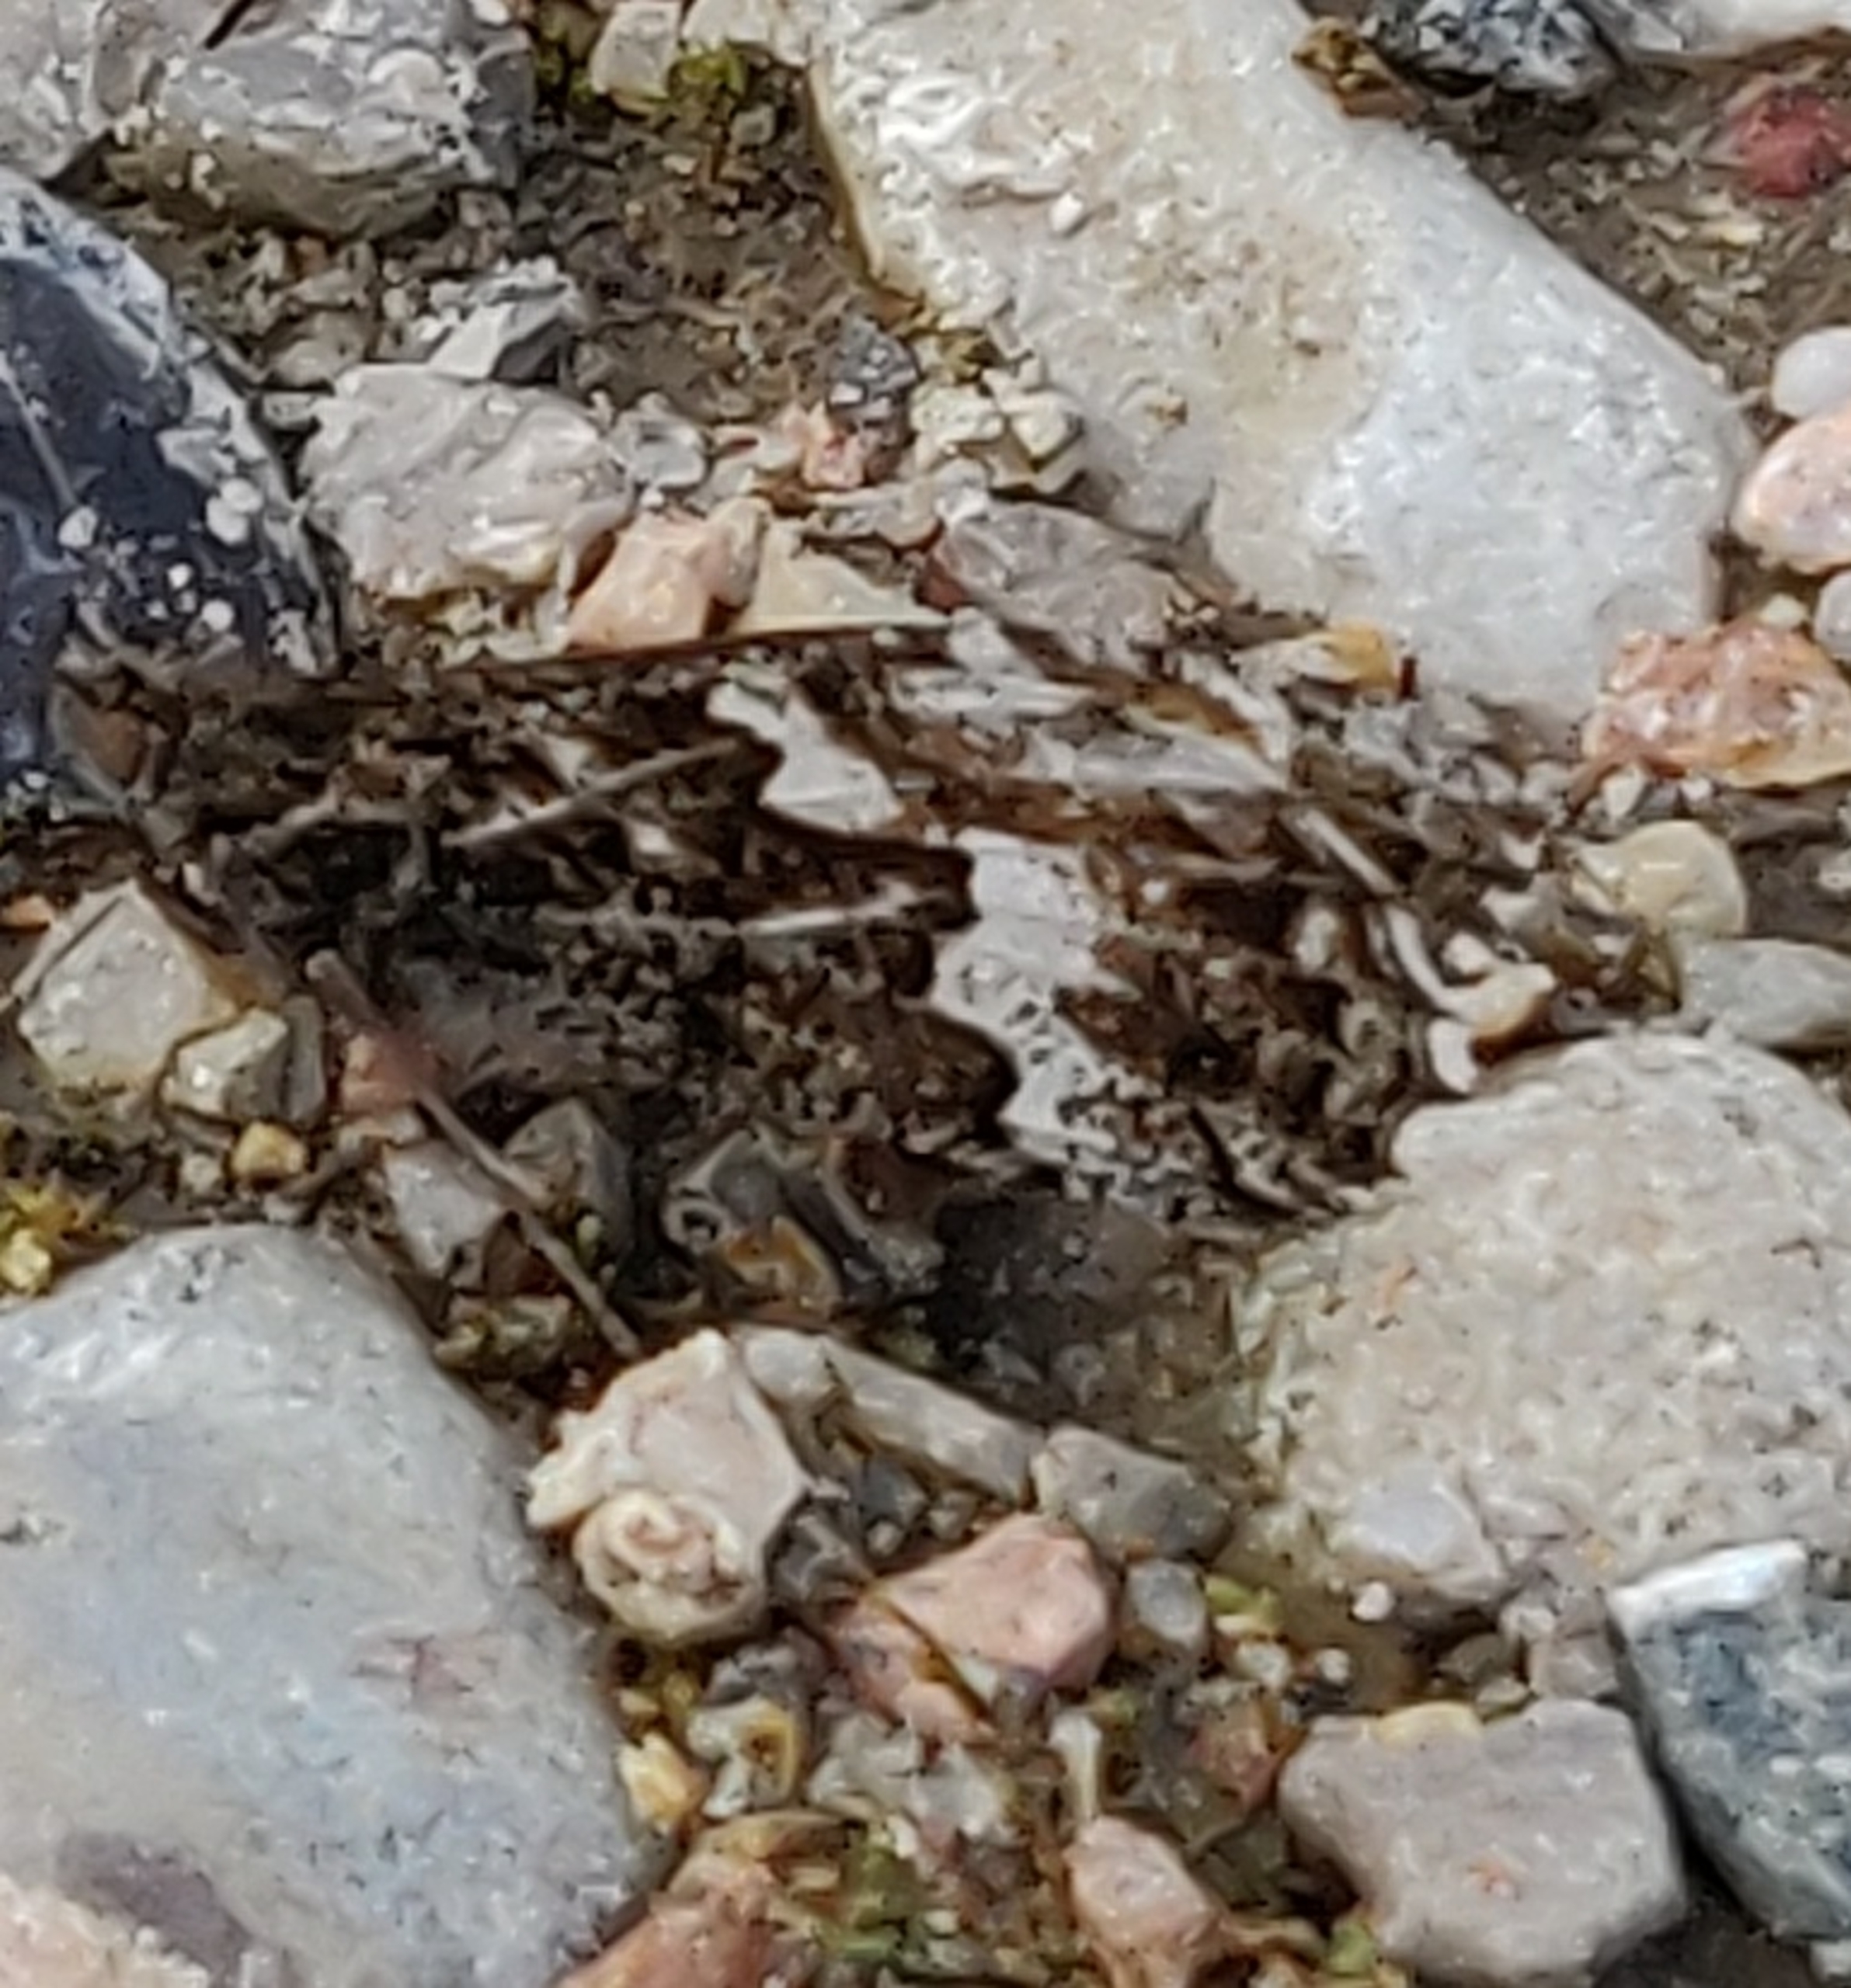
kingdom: Animalia
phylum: Arthropoda
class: Insecta
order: Lepidoptera
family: Nymphalidae
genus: Hipparchia
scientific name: Hipparchia semele
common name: Sandrandøje
